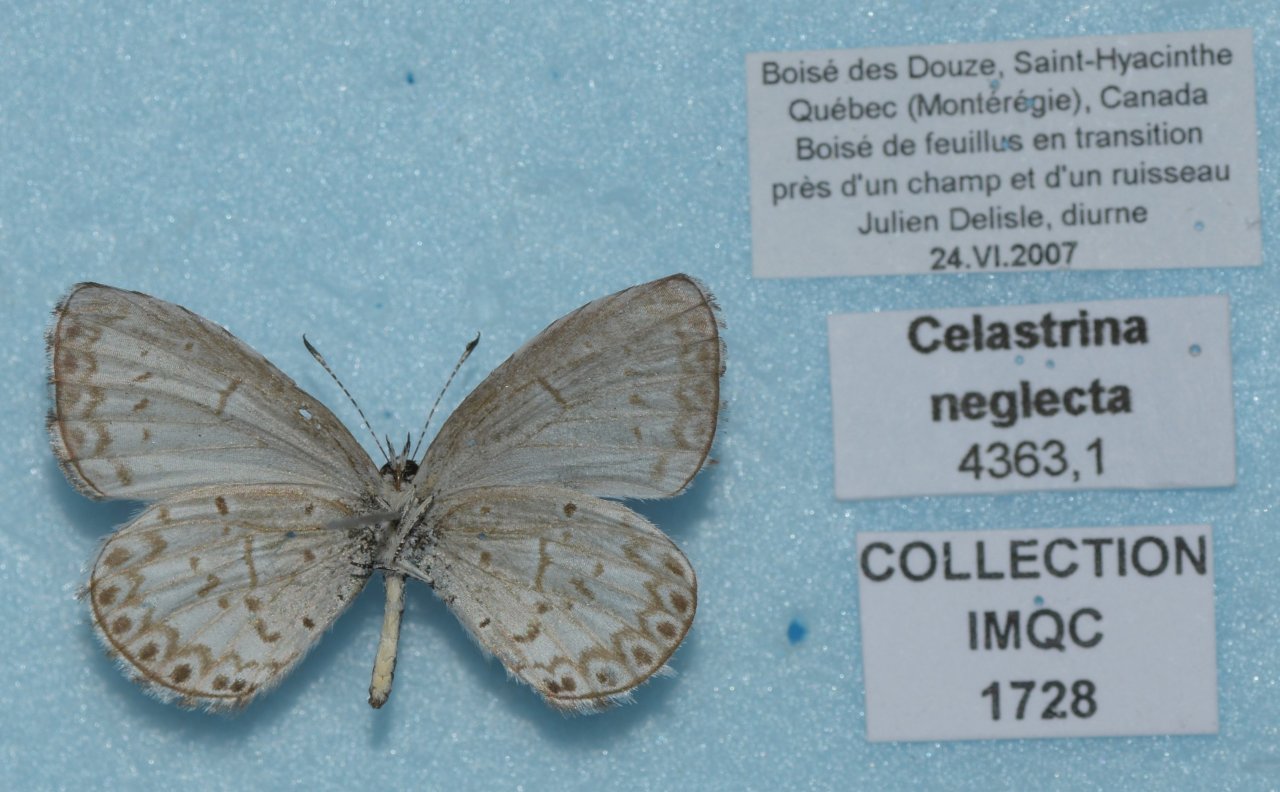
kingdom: Animalia
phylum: Arthropoda
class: Insecta
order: Lepidoptera
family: Lycaenidae
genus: Celastrina
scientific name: Celastrina lucia
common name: Northern Spring Azure
